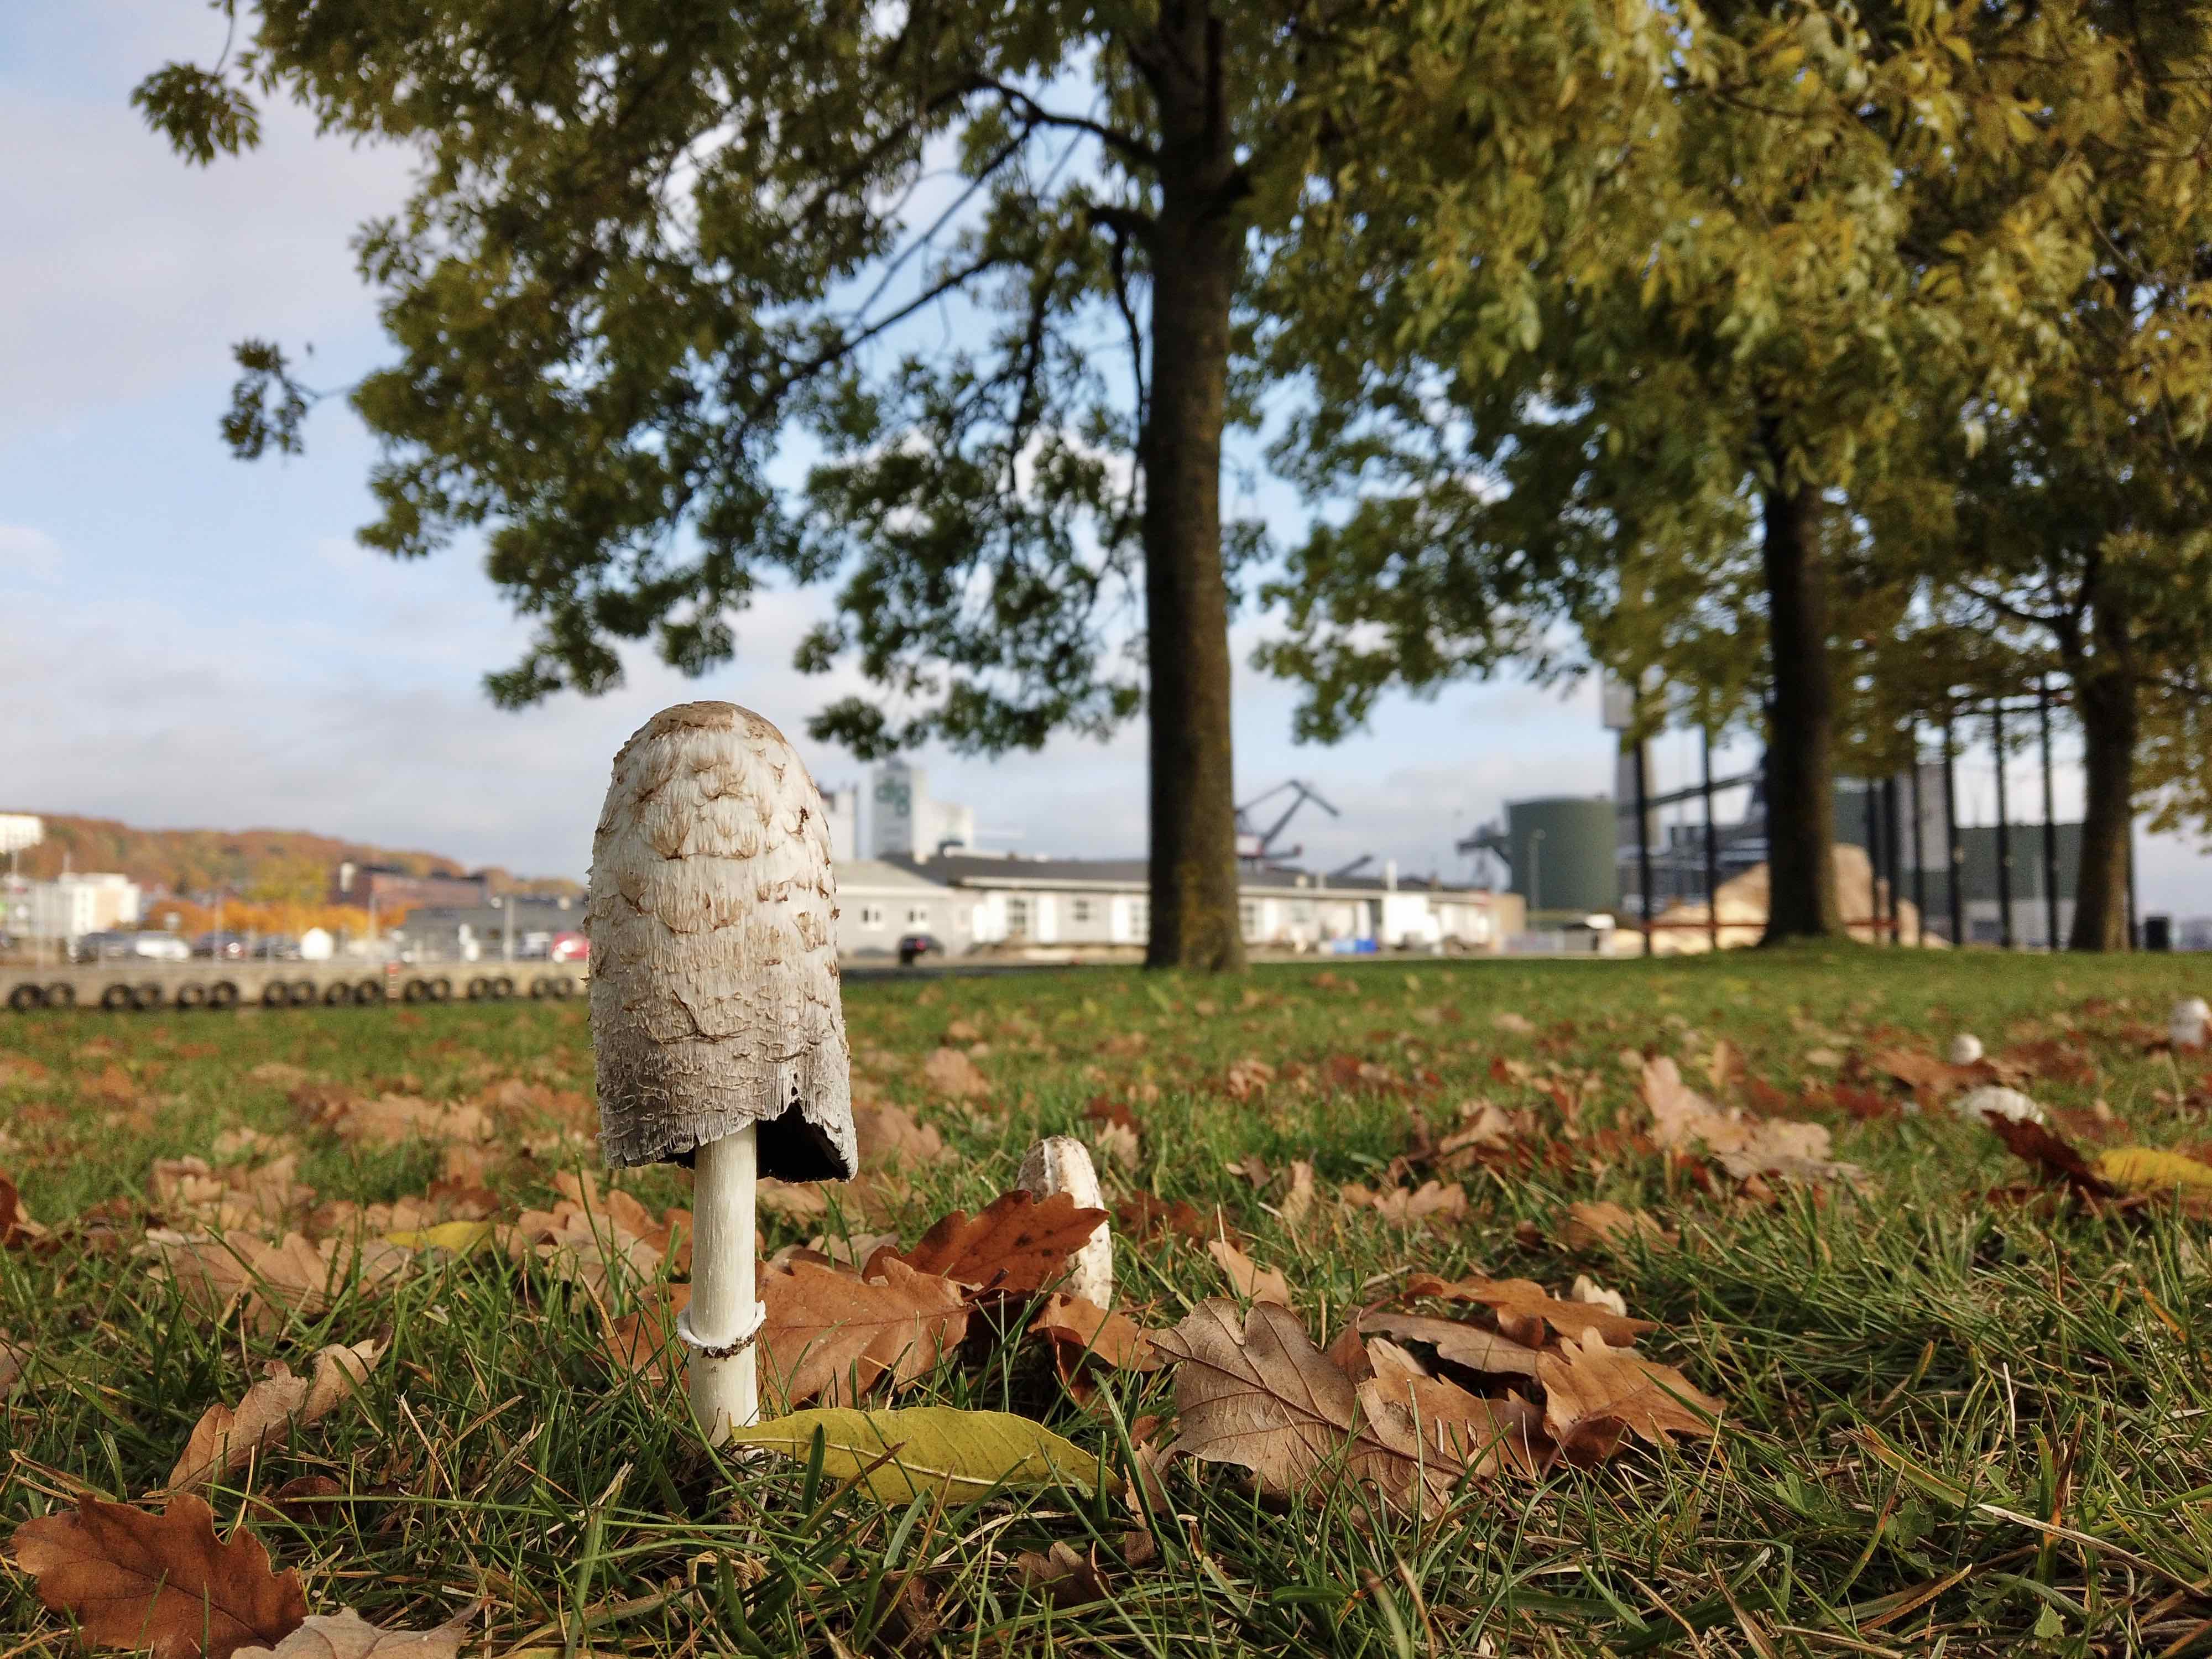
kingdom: Fungi
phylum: Basidiomycota
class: Agaricomycetes
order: Agaricales
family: Agaricaceae
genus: Coprinus
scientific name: Coprinus comatus
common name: stor parykhat
